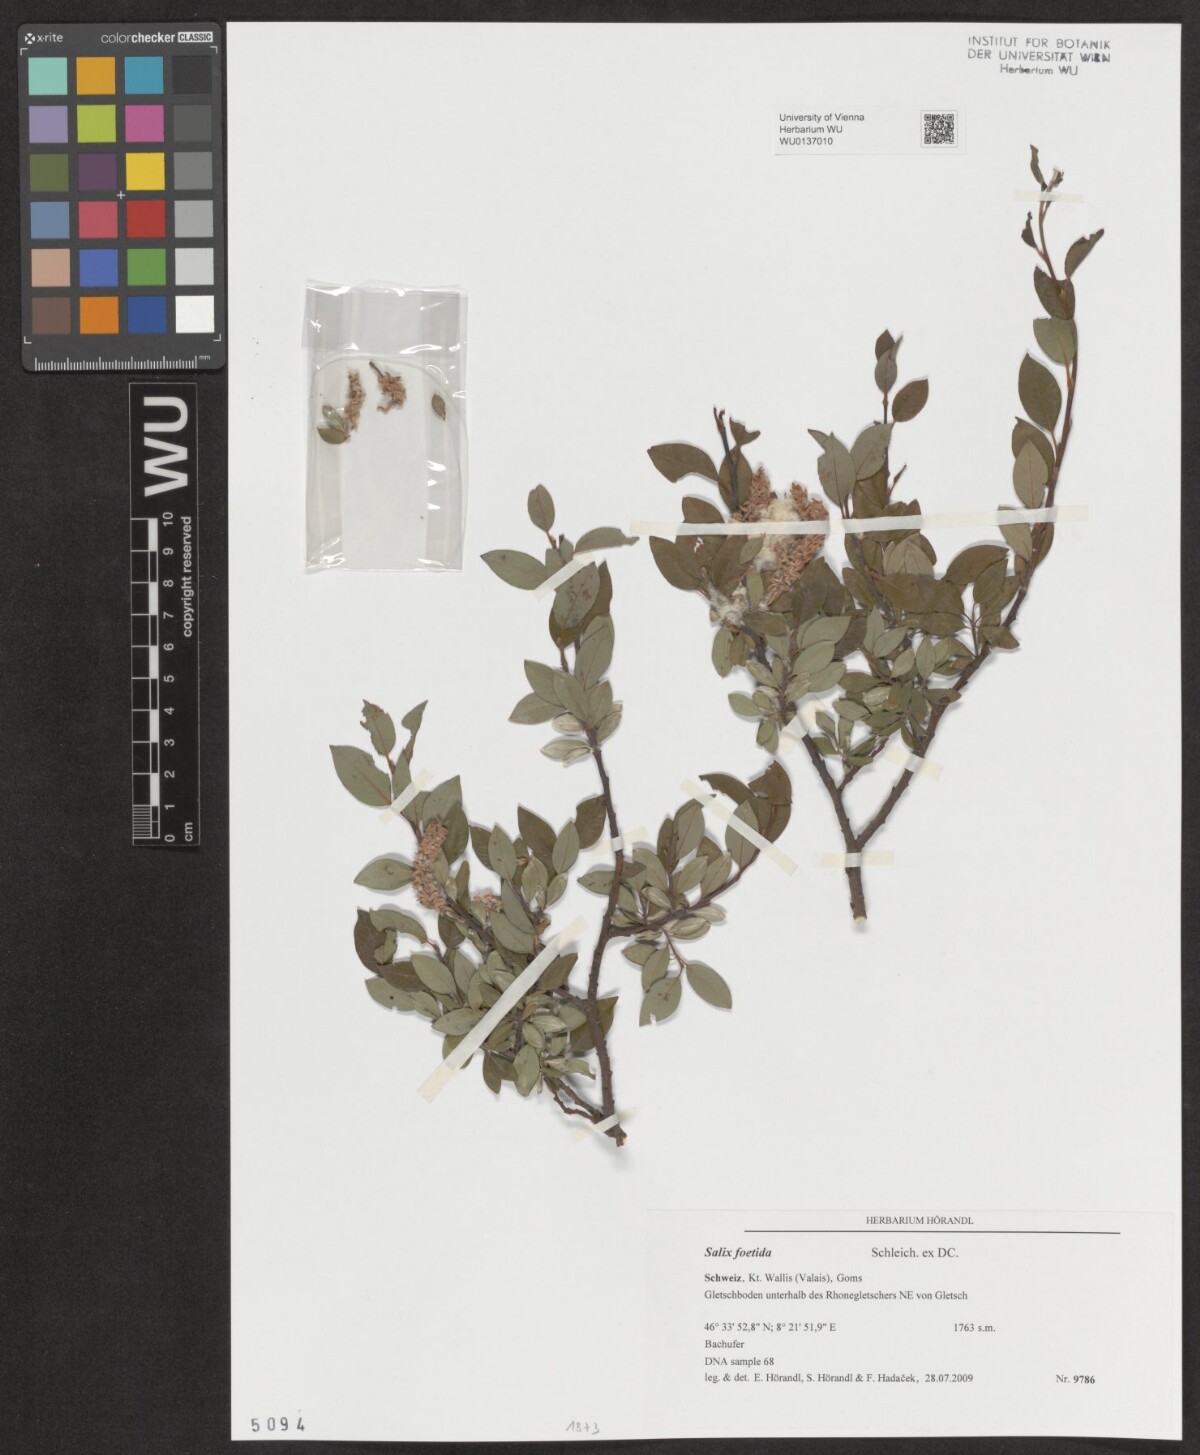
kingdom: Plantae
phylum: Tracheophyta
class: Magnoliopsida
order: Malpighiales
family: Salicaceae
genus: Salix
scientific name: Salix foetida
